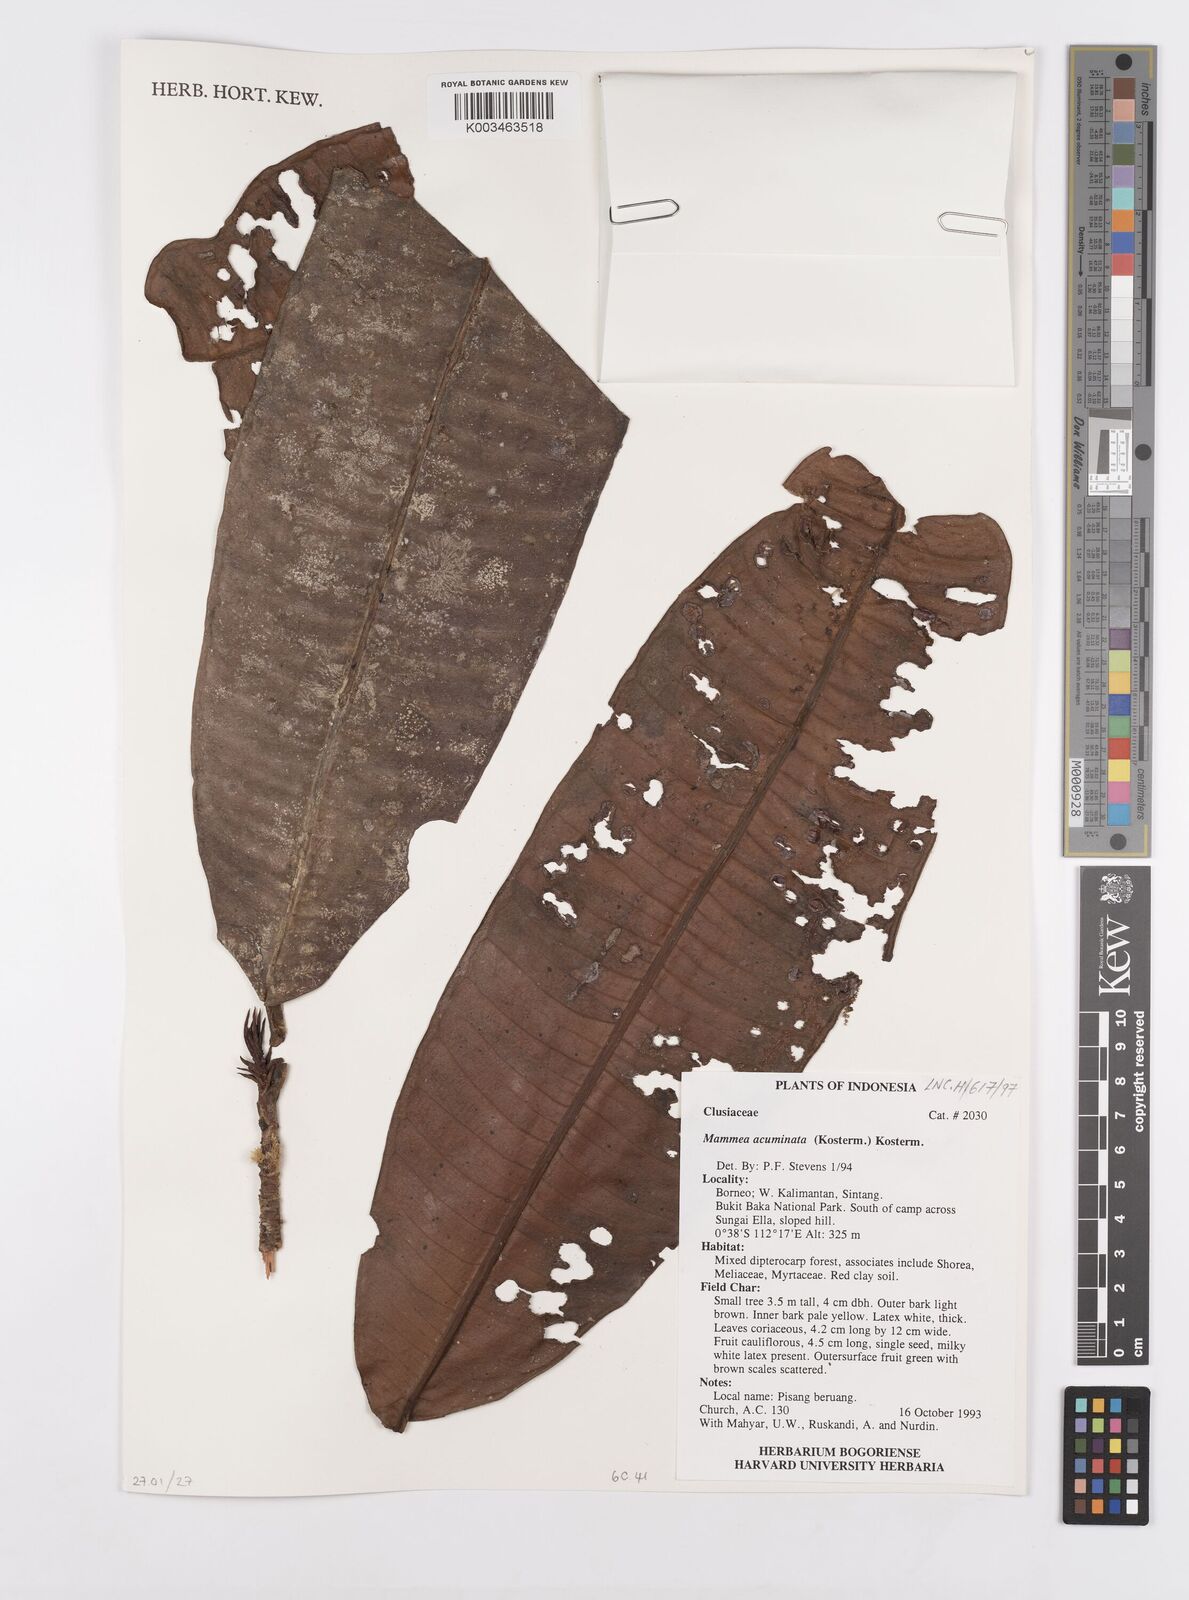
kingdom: Plantae
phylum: Tracheophyta
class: Magnoliopsida
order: Malpighiales
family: Calophyllaceae
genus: Mammea
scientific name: Mammea acuminata
